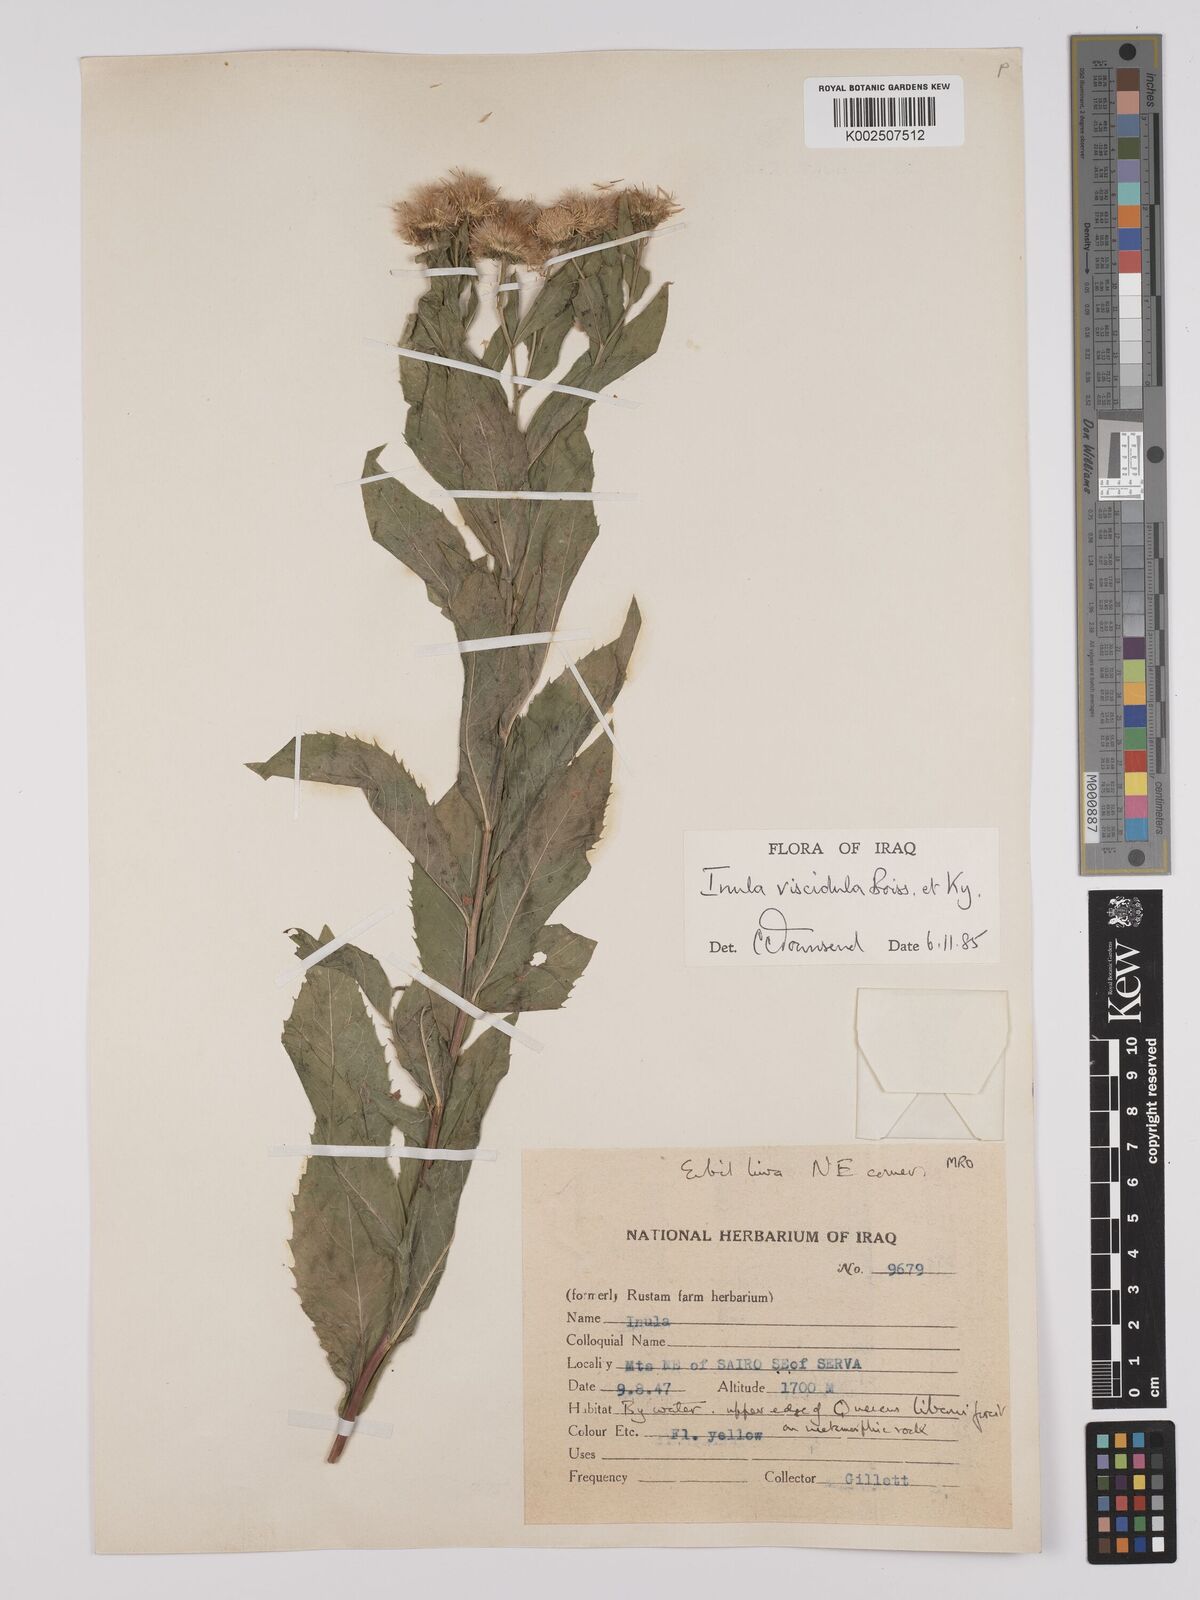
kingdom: Plantae
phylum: Tracheophyta
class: Magnoliopsida
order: Asterales
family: Asteraceae
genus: Inula
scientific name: Inula
